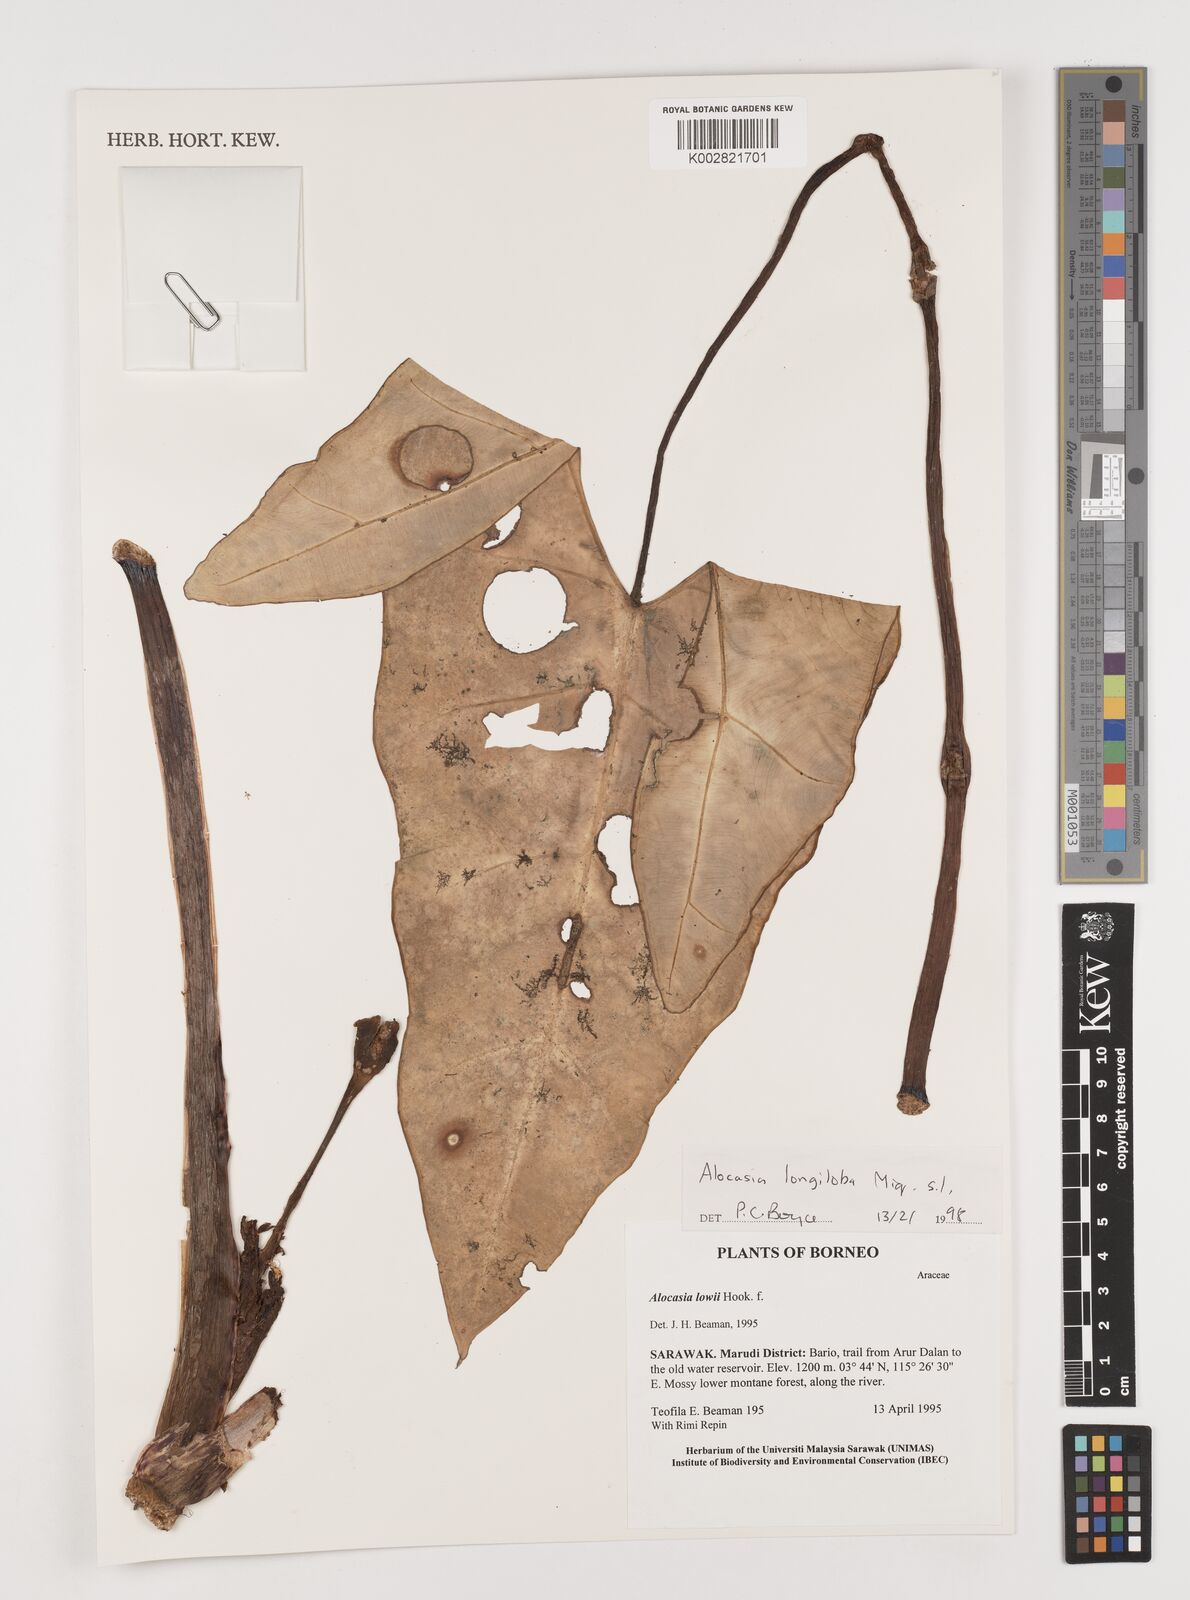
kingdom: Plantae
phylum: Tracheophyta
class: Liliopsida
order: Alismatales
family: Araceae
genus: Alocasia
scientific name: Alocasia longiloba
